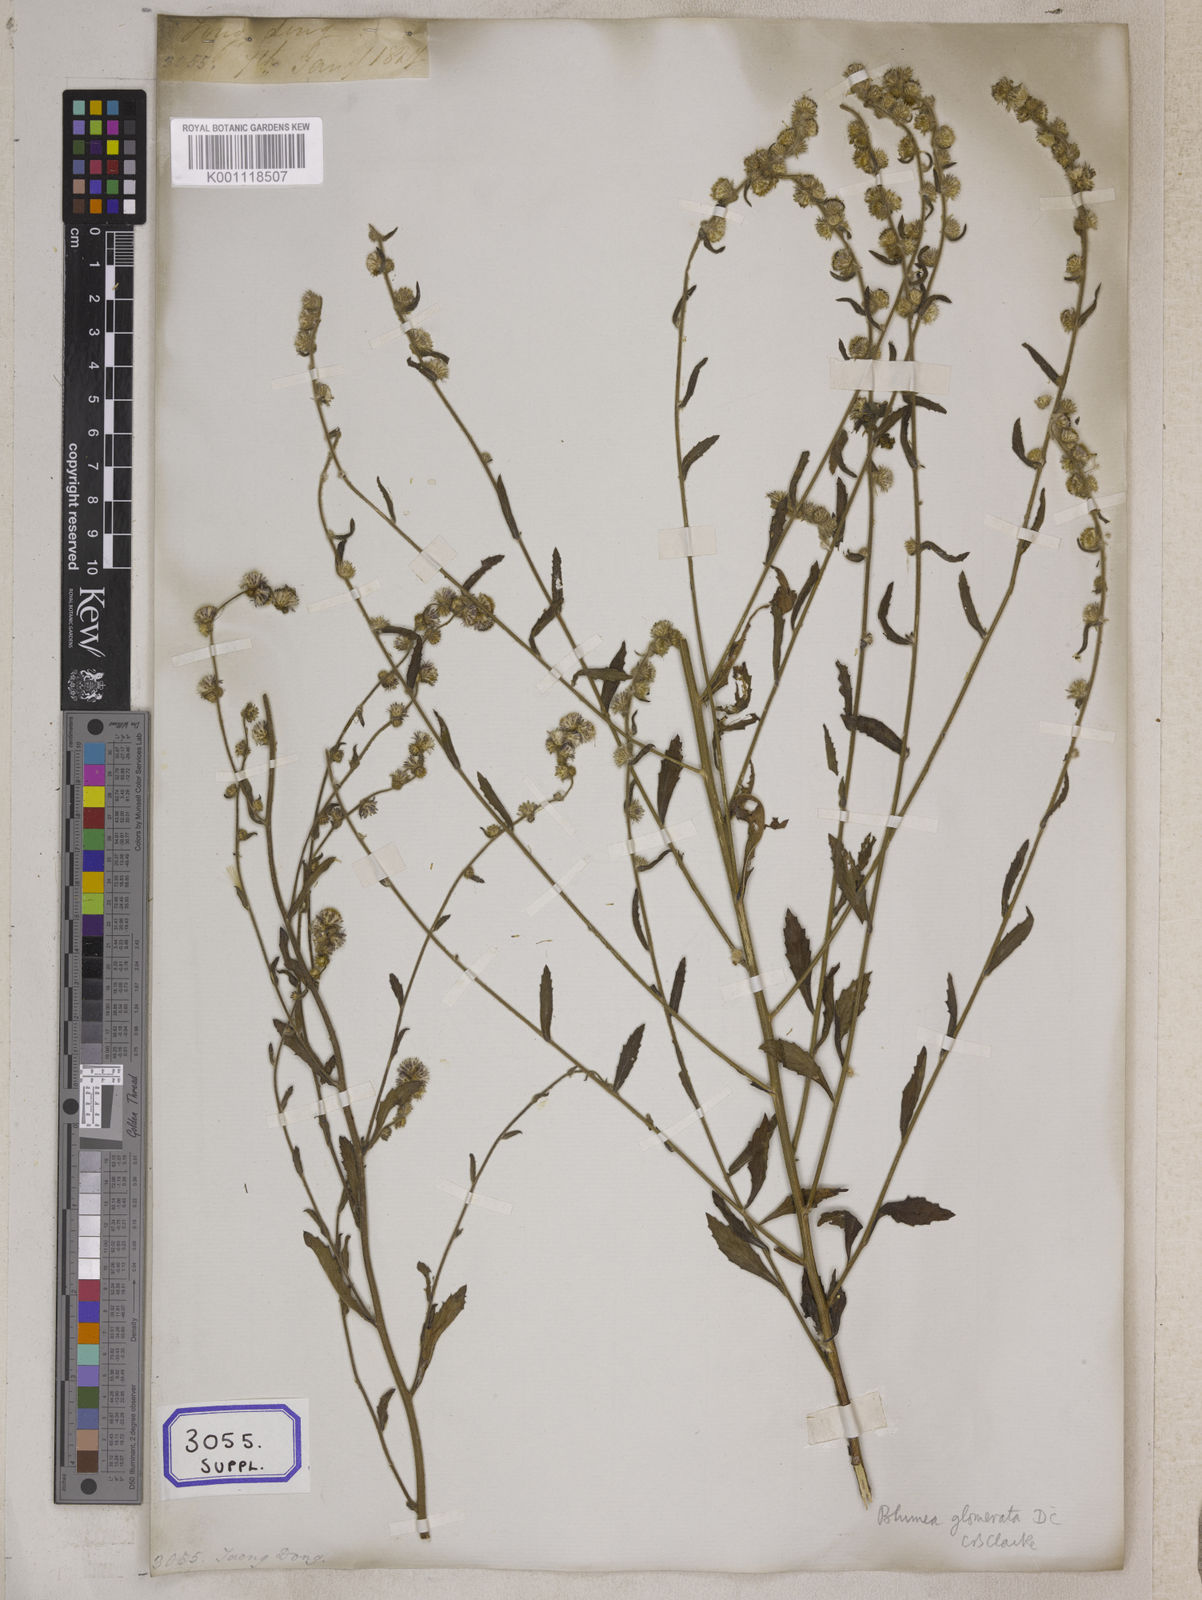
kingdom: Plantae
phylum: Tracheophyta
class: Magnoliopsida
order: Asterales
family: Asteraceae
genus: Blumea
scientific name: Blumea fistulosa
